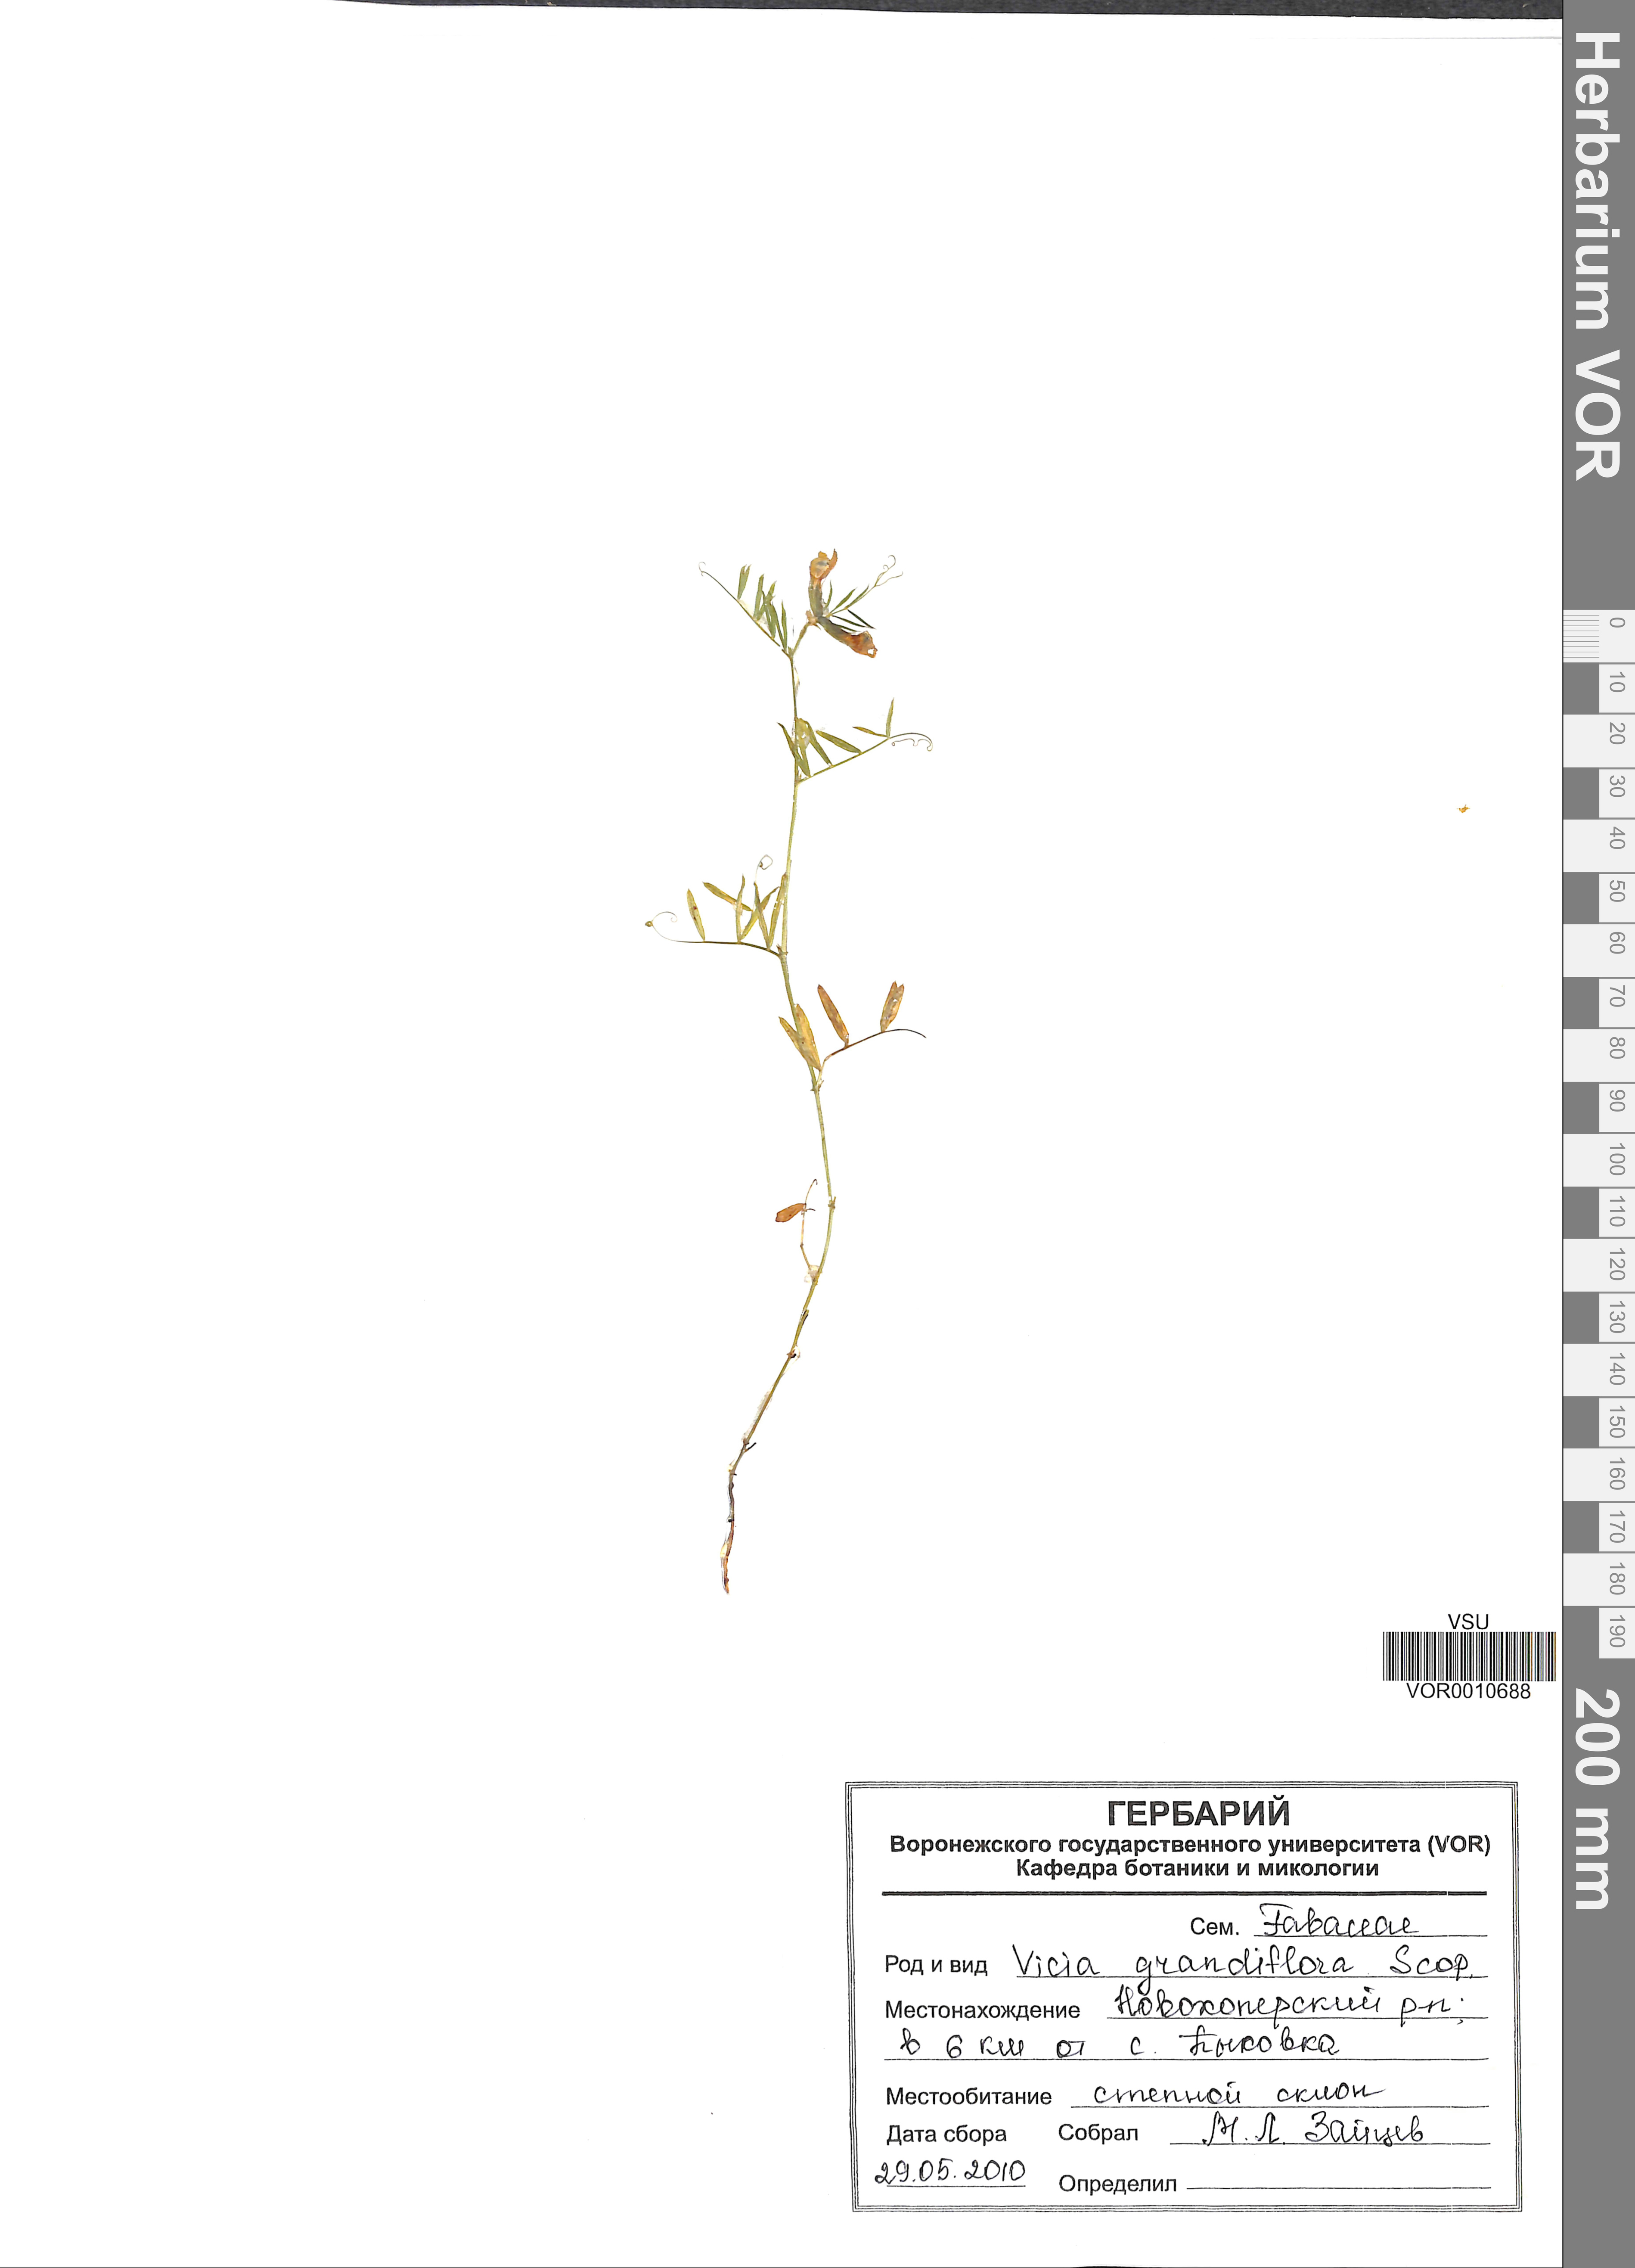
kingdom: Plantae
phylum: Tracheophyta
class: Magnoliopsida
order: Fabales
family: Fabaceae
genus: Vicia
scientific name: Vicia grandiflora
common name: Large yellow vetch
